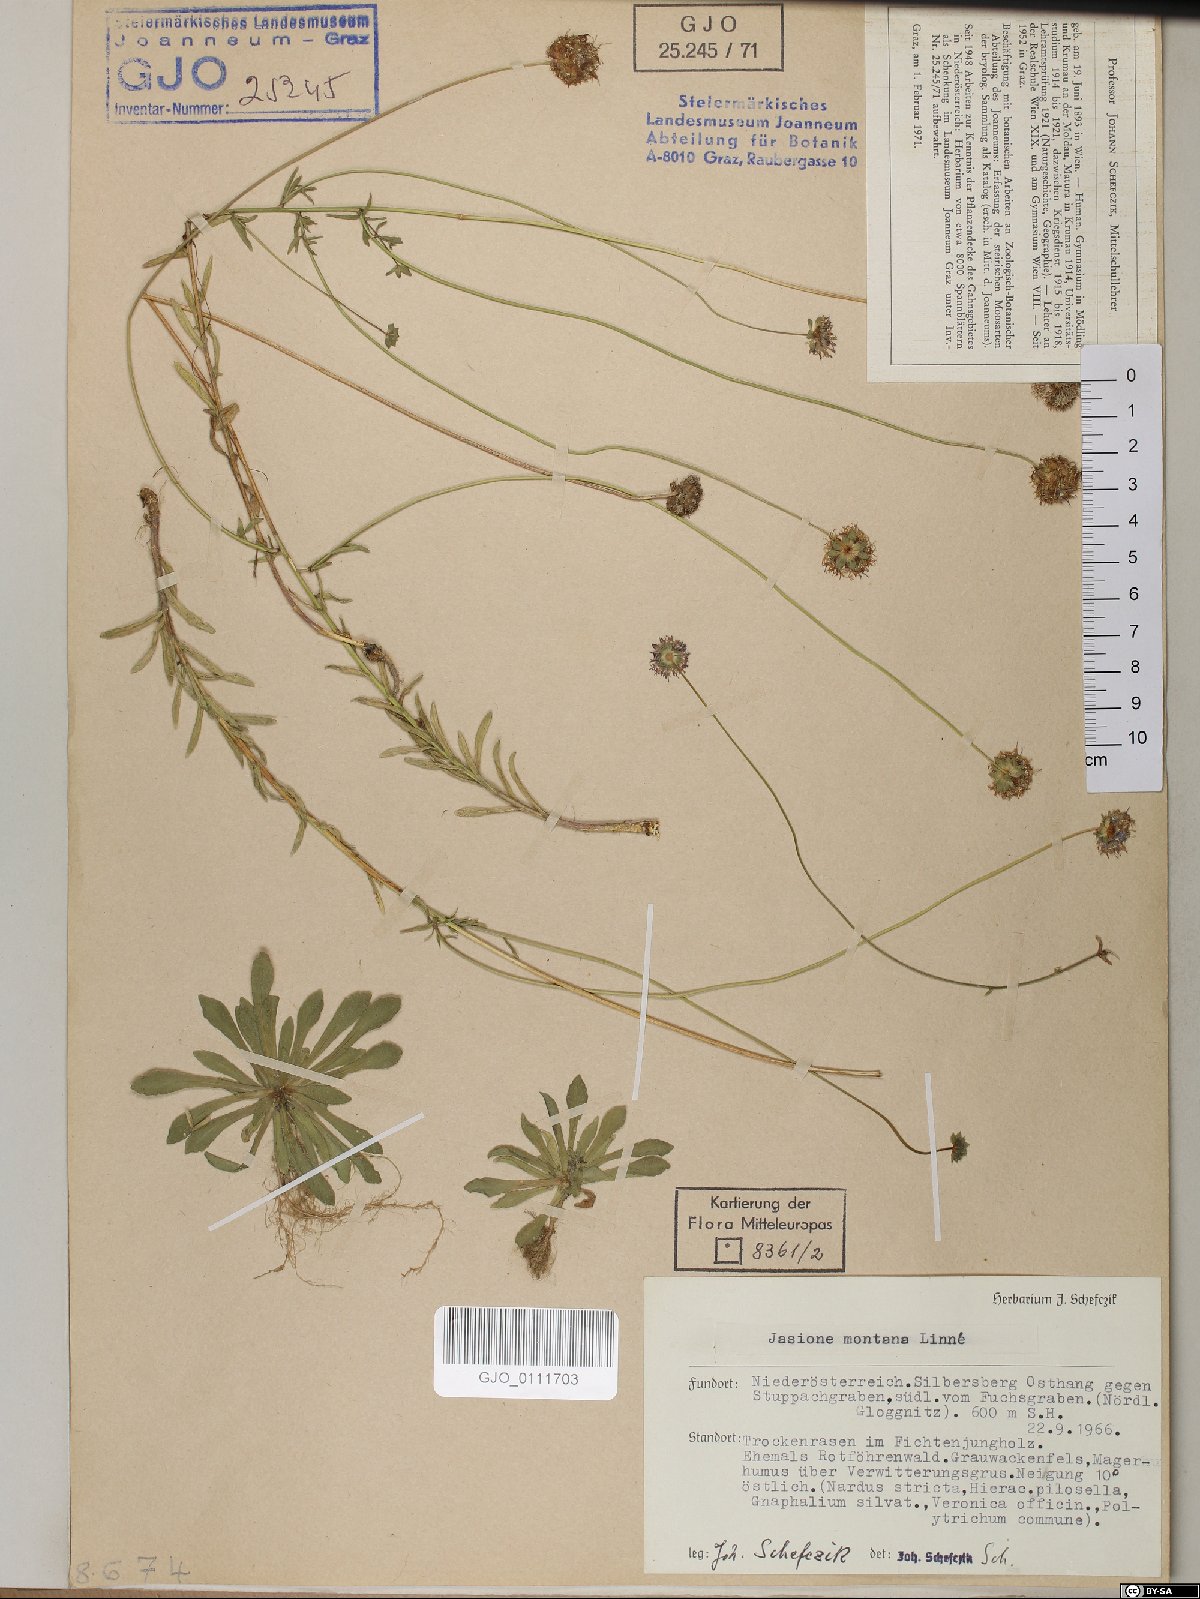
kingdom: Plantae
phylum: Tracheophyta
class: Magnoliopsida
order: Asterales
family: Campanulaceae
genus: Jasione
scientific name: Jasione montana
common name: Sheep's-bit
